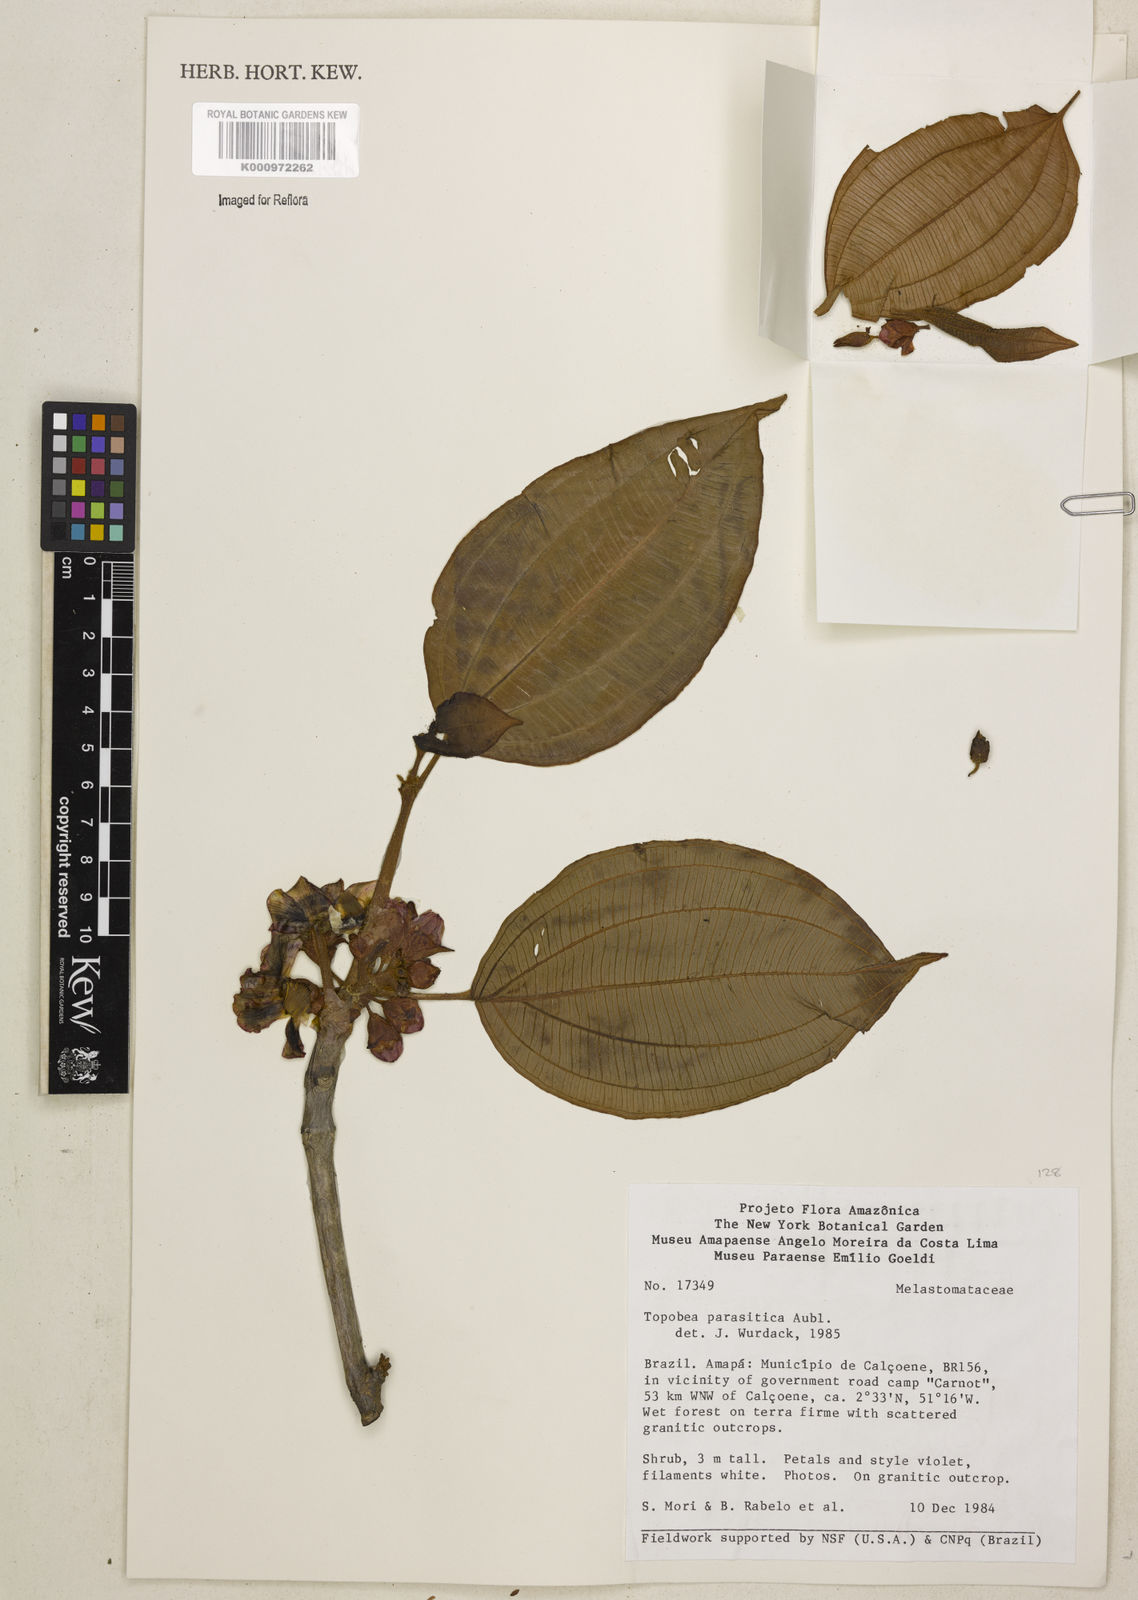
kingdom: Plantae
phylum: Tracheophyta
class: Magnoliopsida
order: Myrtales
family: Melastomataceae
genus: Blakea
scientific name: Blakea parasitica
